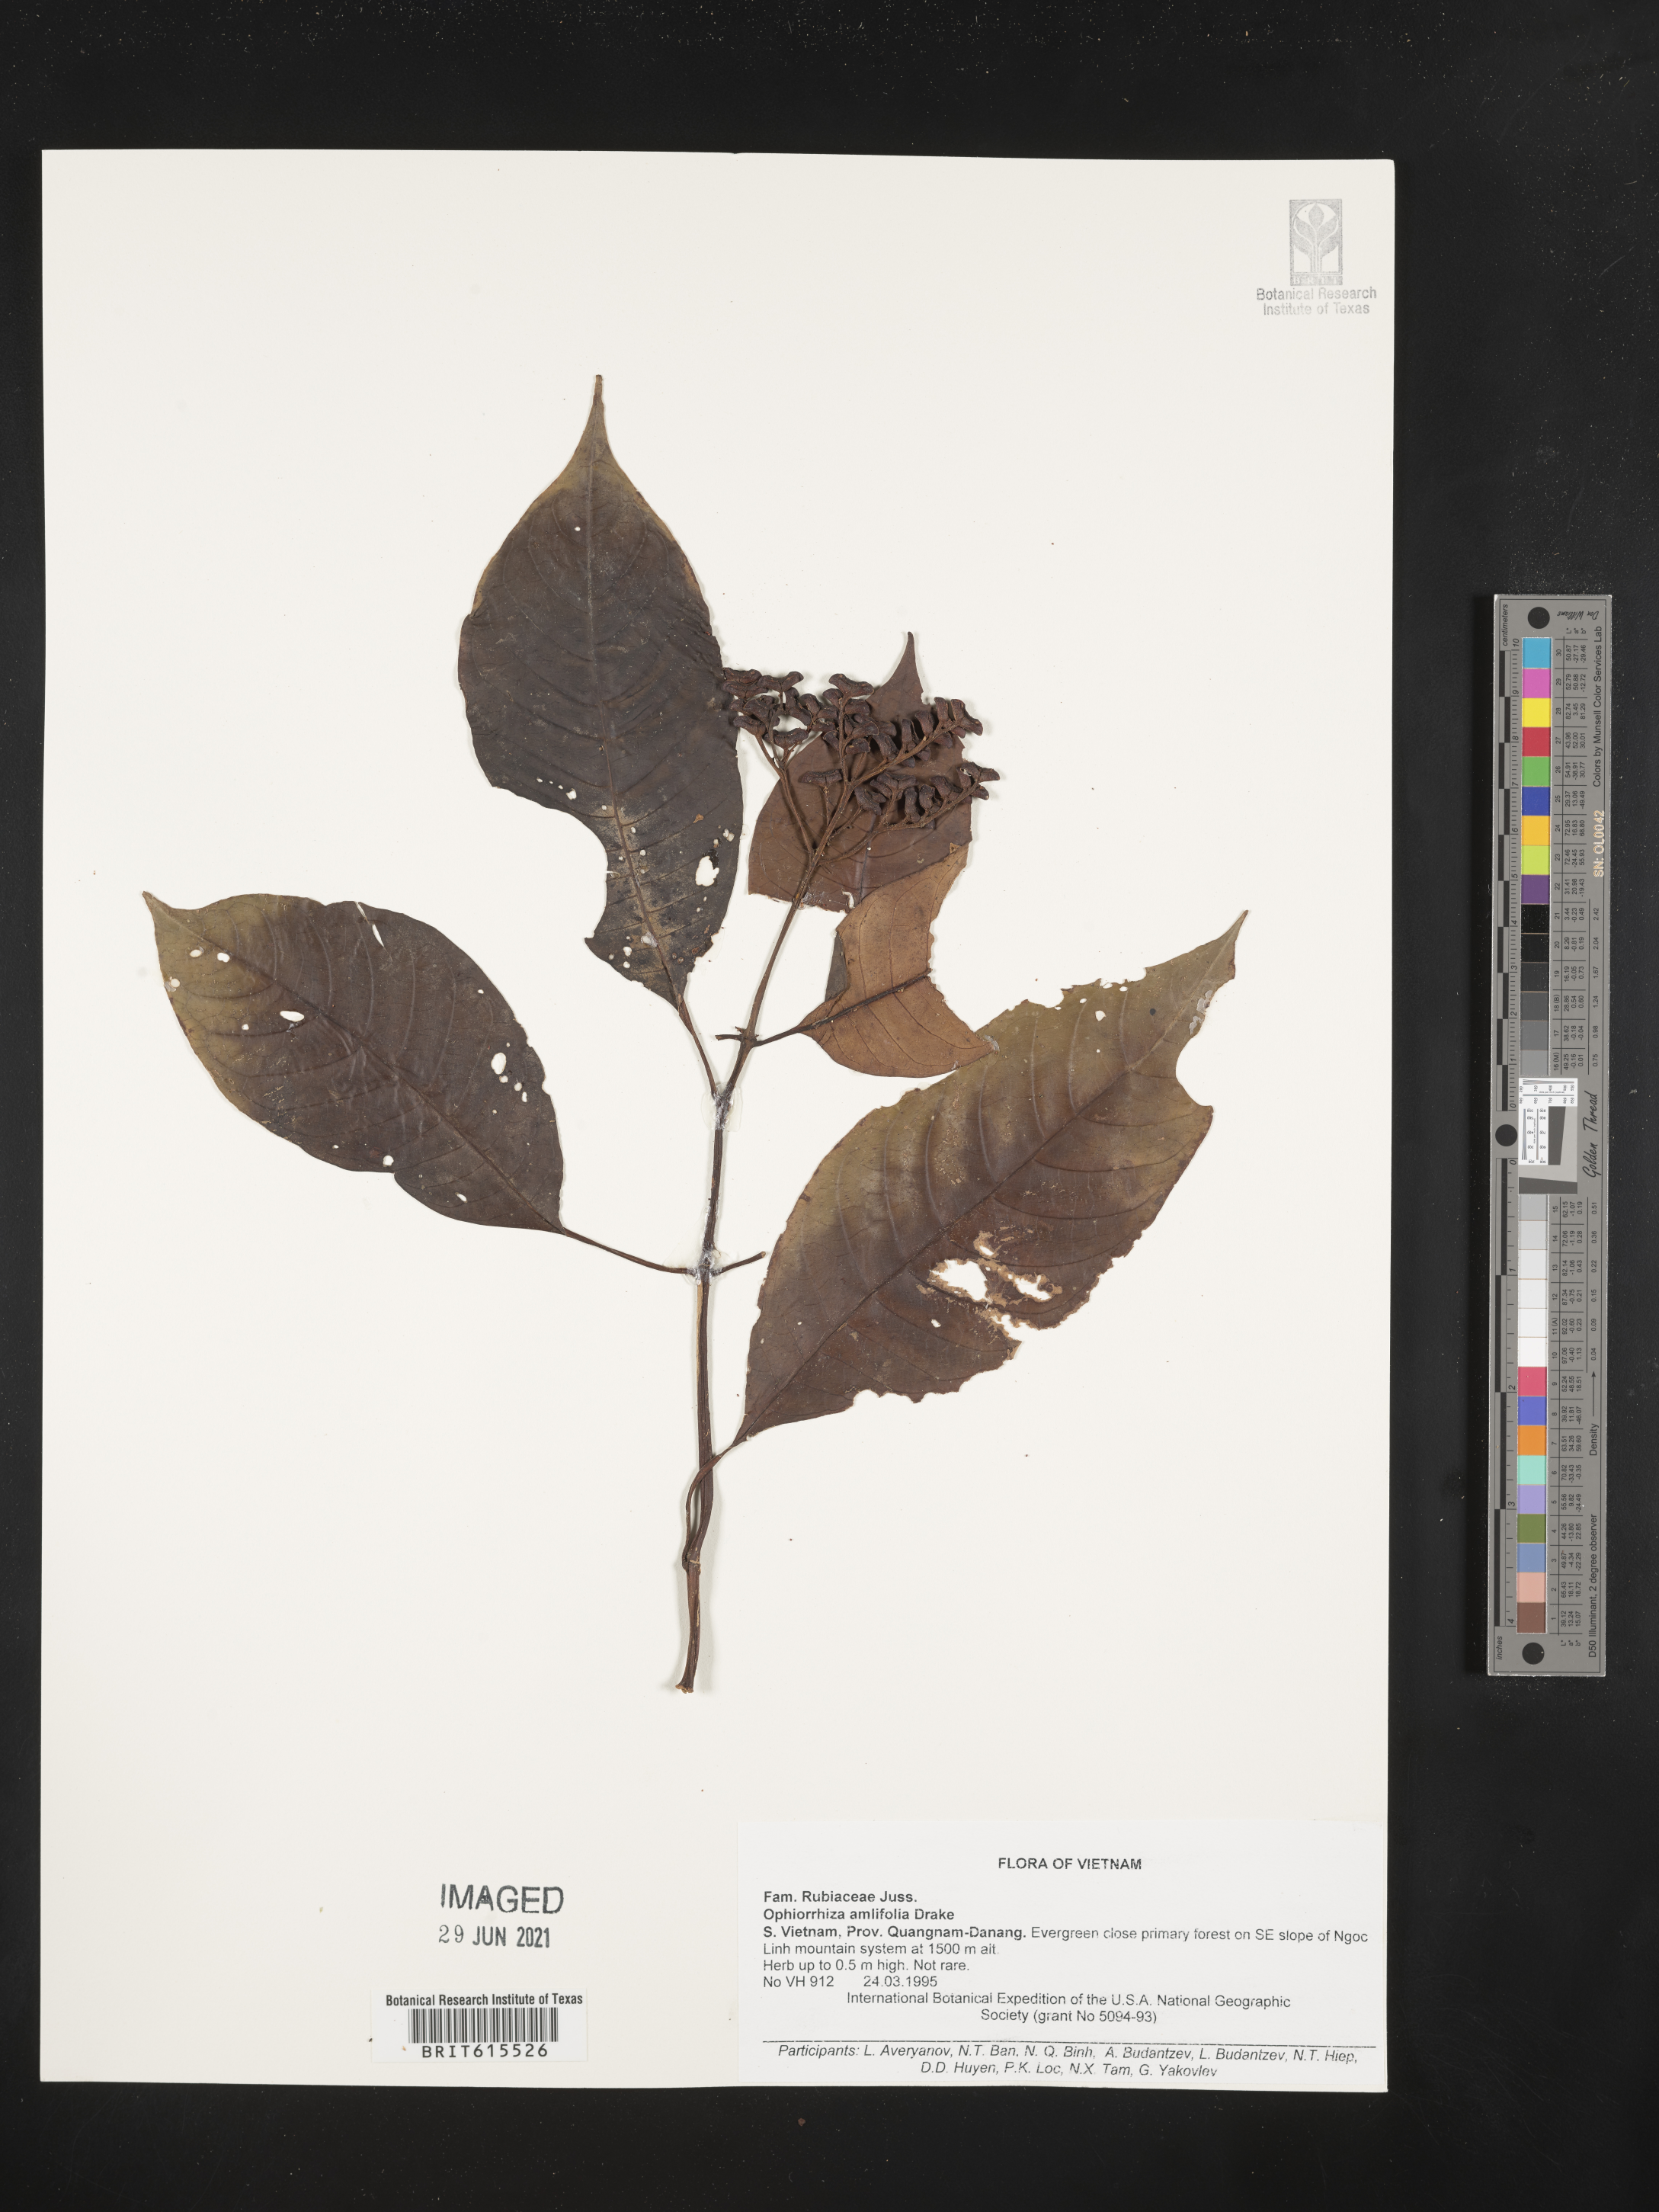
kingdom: Plantae
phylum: Tracheophyta
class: Magnoliopsida
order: Gentianales
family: Rubiaceae
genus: Ophiorrhiza
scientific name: Ophiorrhiza amplifolia
